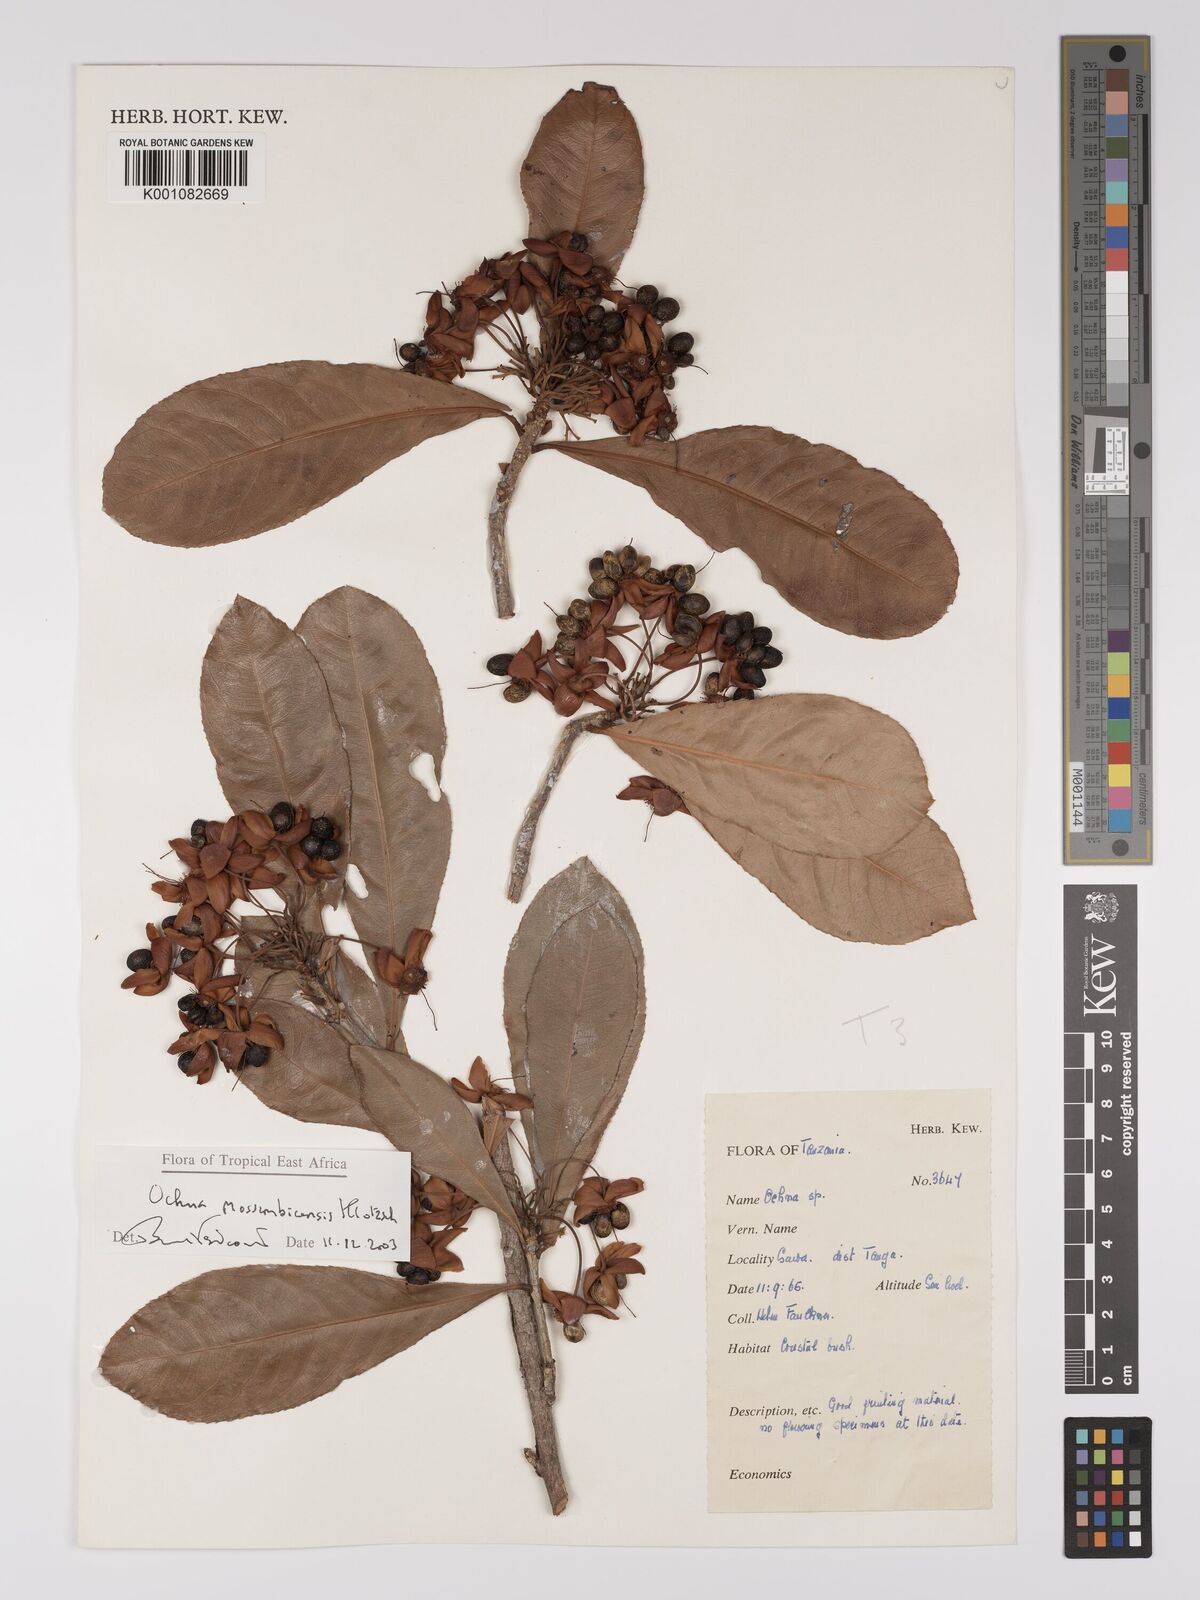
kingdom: Plantae
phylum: Tracheophyta
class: Magnoliopsida
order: Malpighiales
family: Ochnaceae
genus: Ochna
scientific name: Ochna atropurpurea
